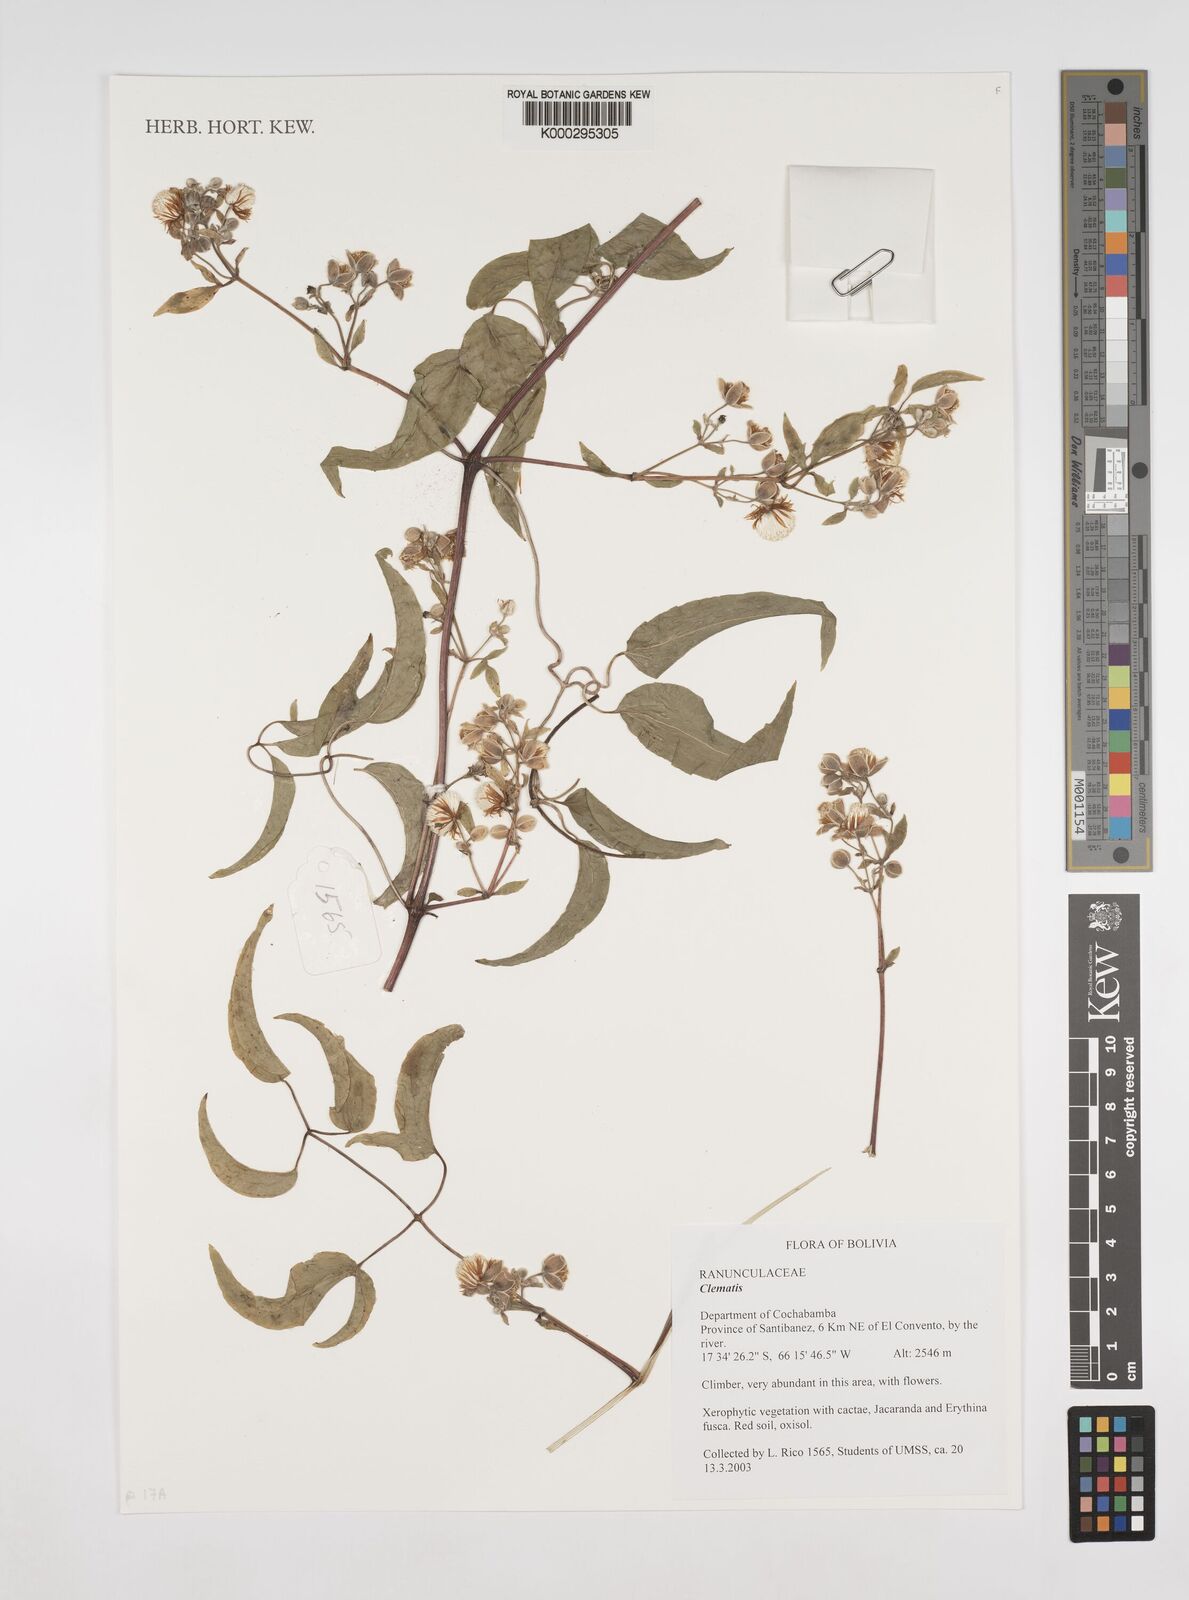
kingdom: Plantae
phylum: Tracheophyta
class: Magnoliopsida
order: Ranunculales
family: Ranunculaceae
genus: Clematis
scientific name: Clematis
